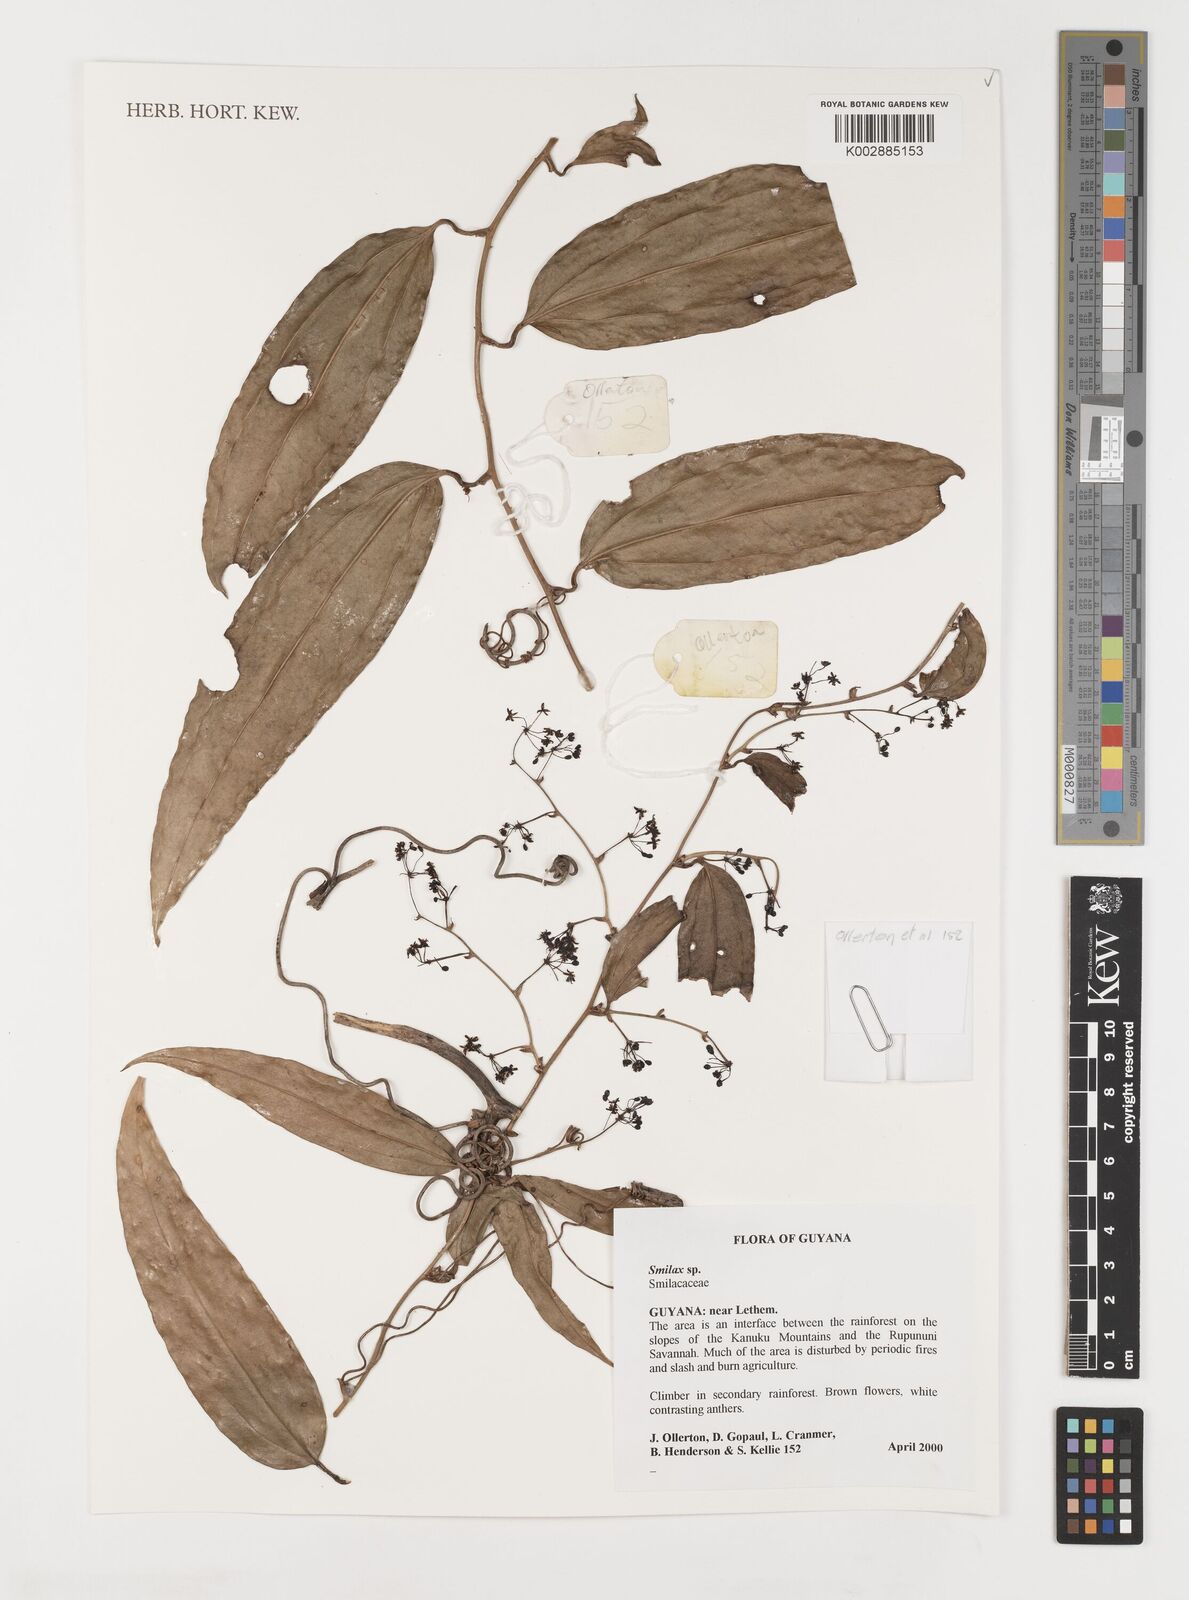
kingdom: Plantae
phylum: Tracheophyta
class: Liliopsida
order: Liliales
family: Smilacaceae
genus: Smilax
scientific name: Smilax
